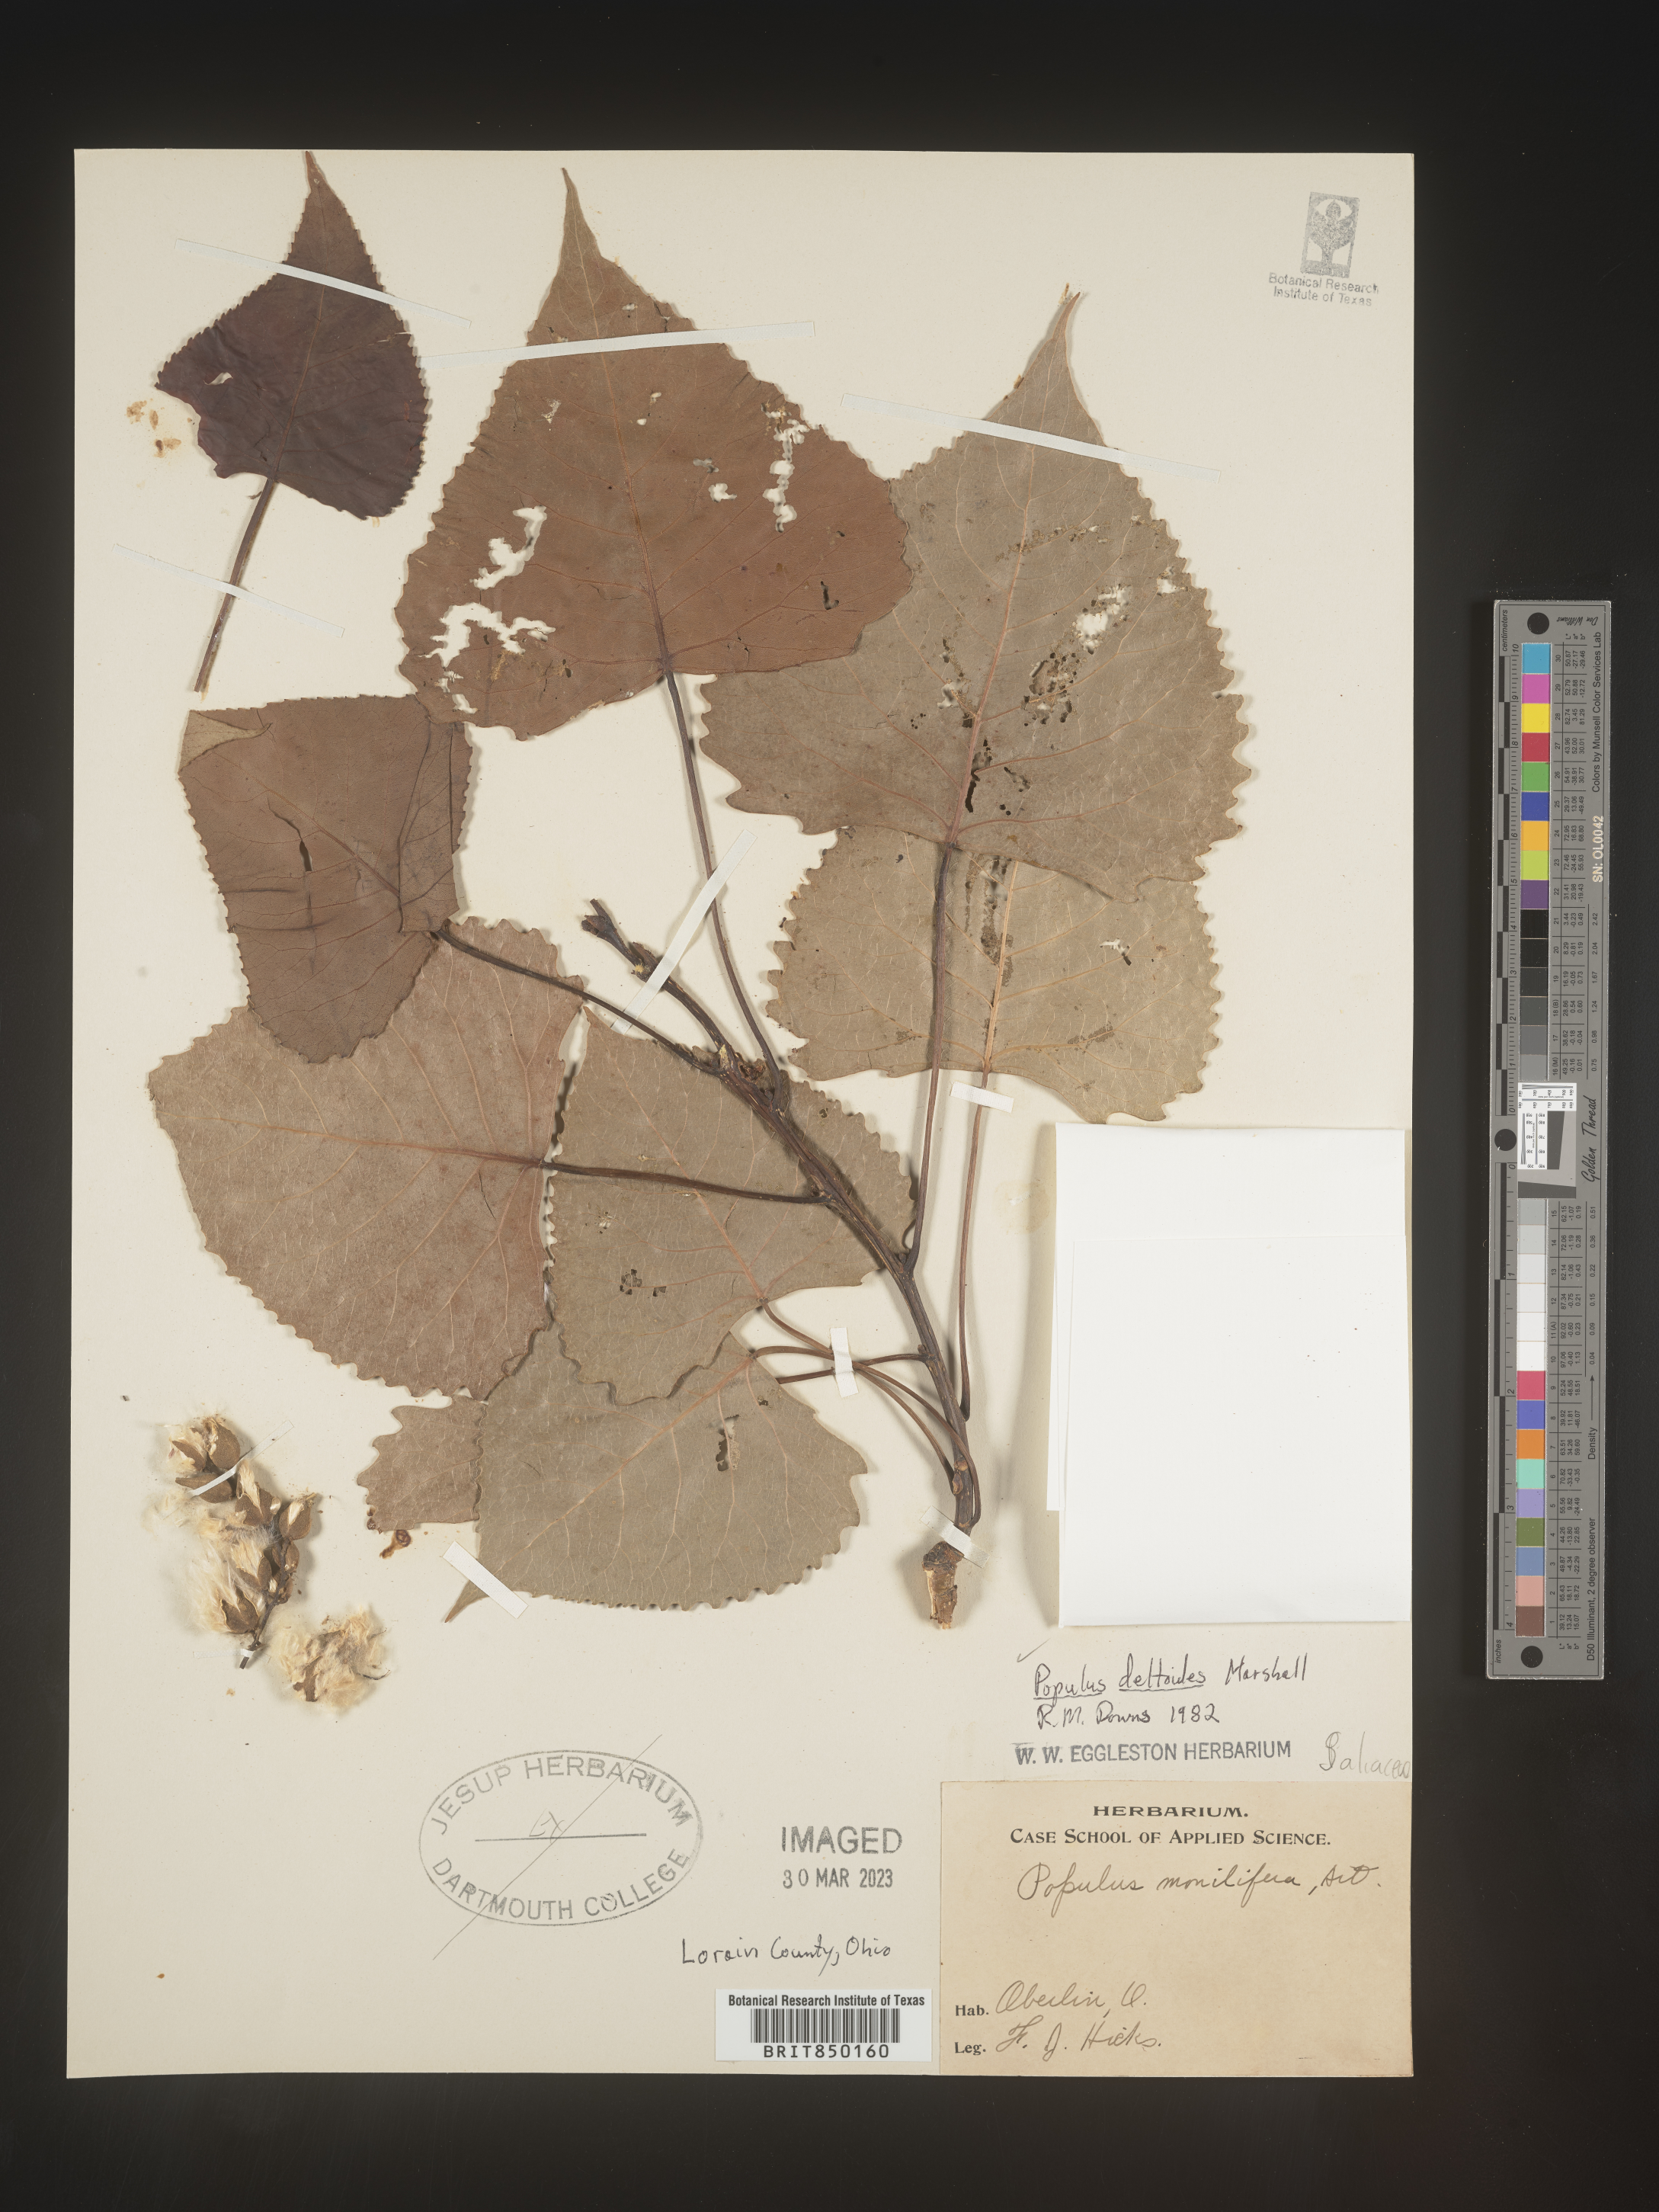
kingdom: Plantae
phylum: Tracheophyta
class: Magnoliopsida
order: Malpighiales
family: Salicaceae
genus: Populus
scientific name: Populus deltoides
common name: Eastern cottonwood
